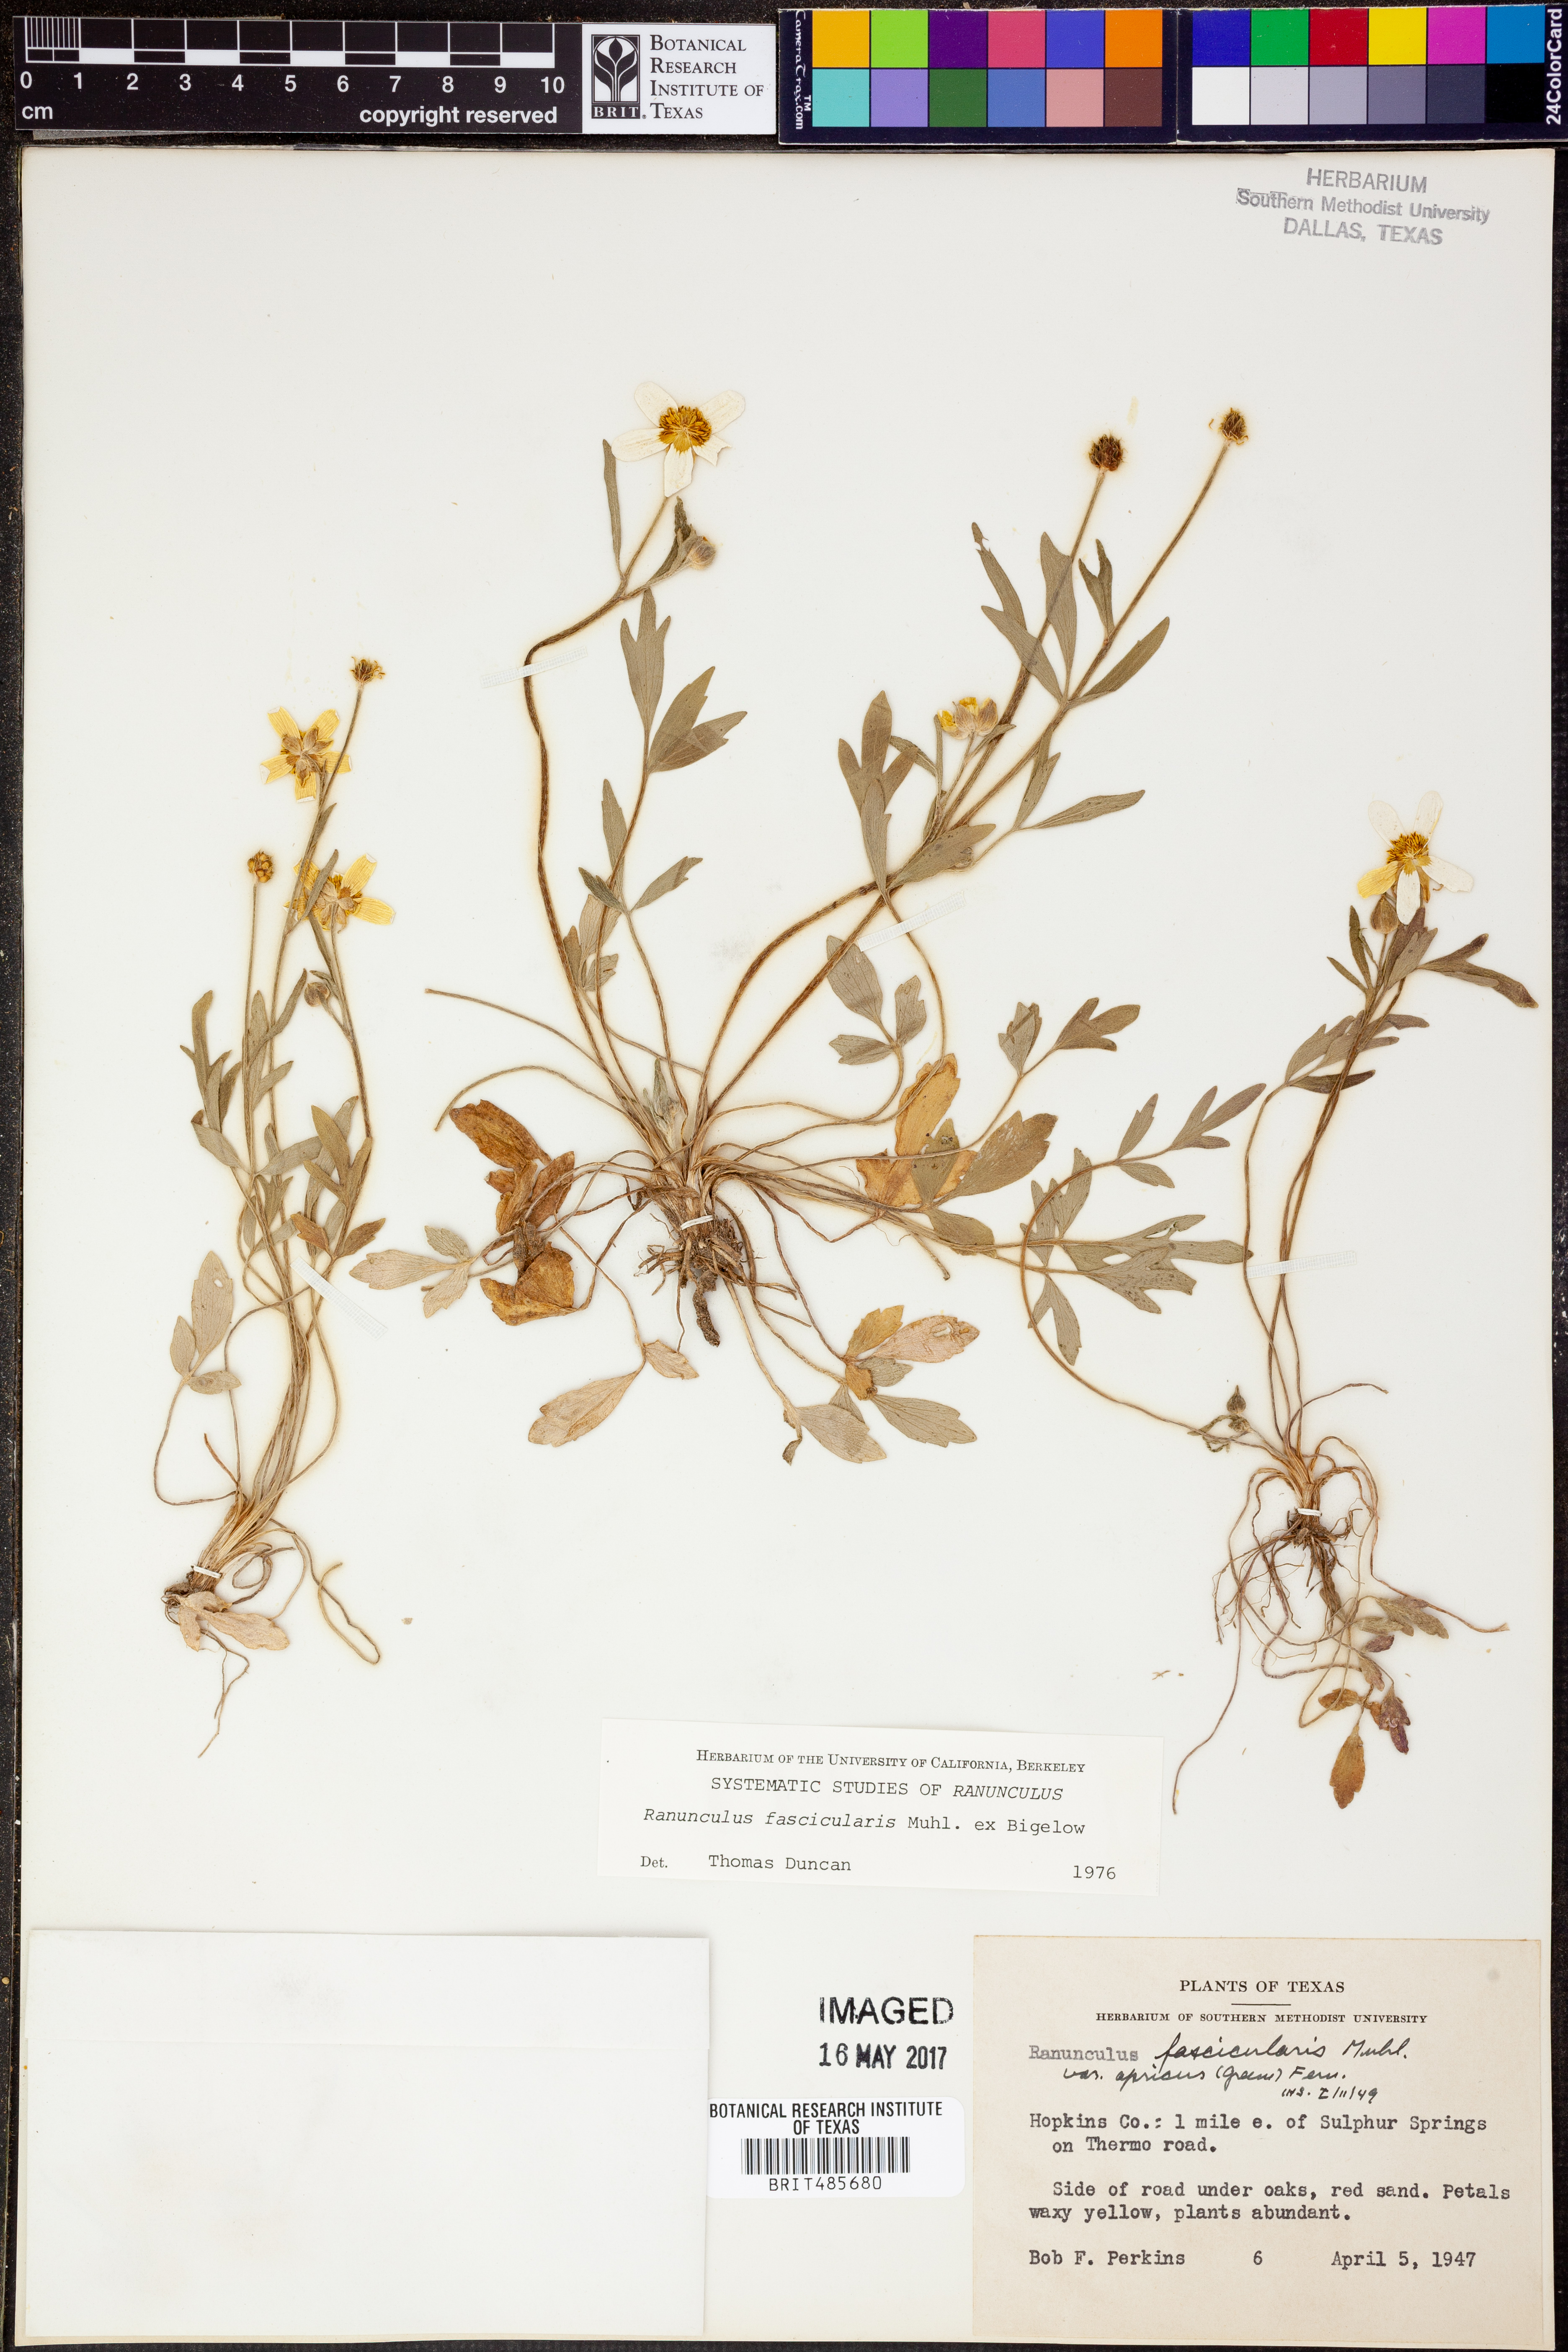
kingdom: Plantae
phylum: Tracheophyta
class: Magnoliopsida
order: Ranunculales
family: Ranunculaceae
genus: Ranunculus
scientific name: Ranunculus fascicularis
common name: Early buttercup
